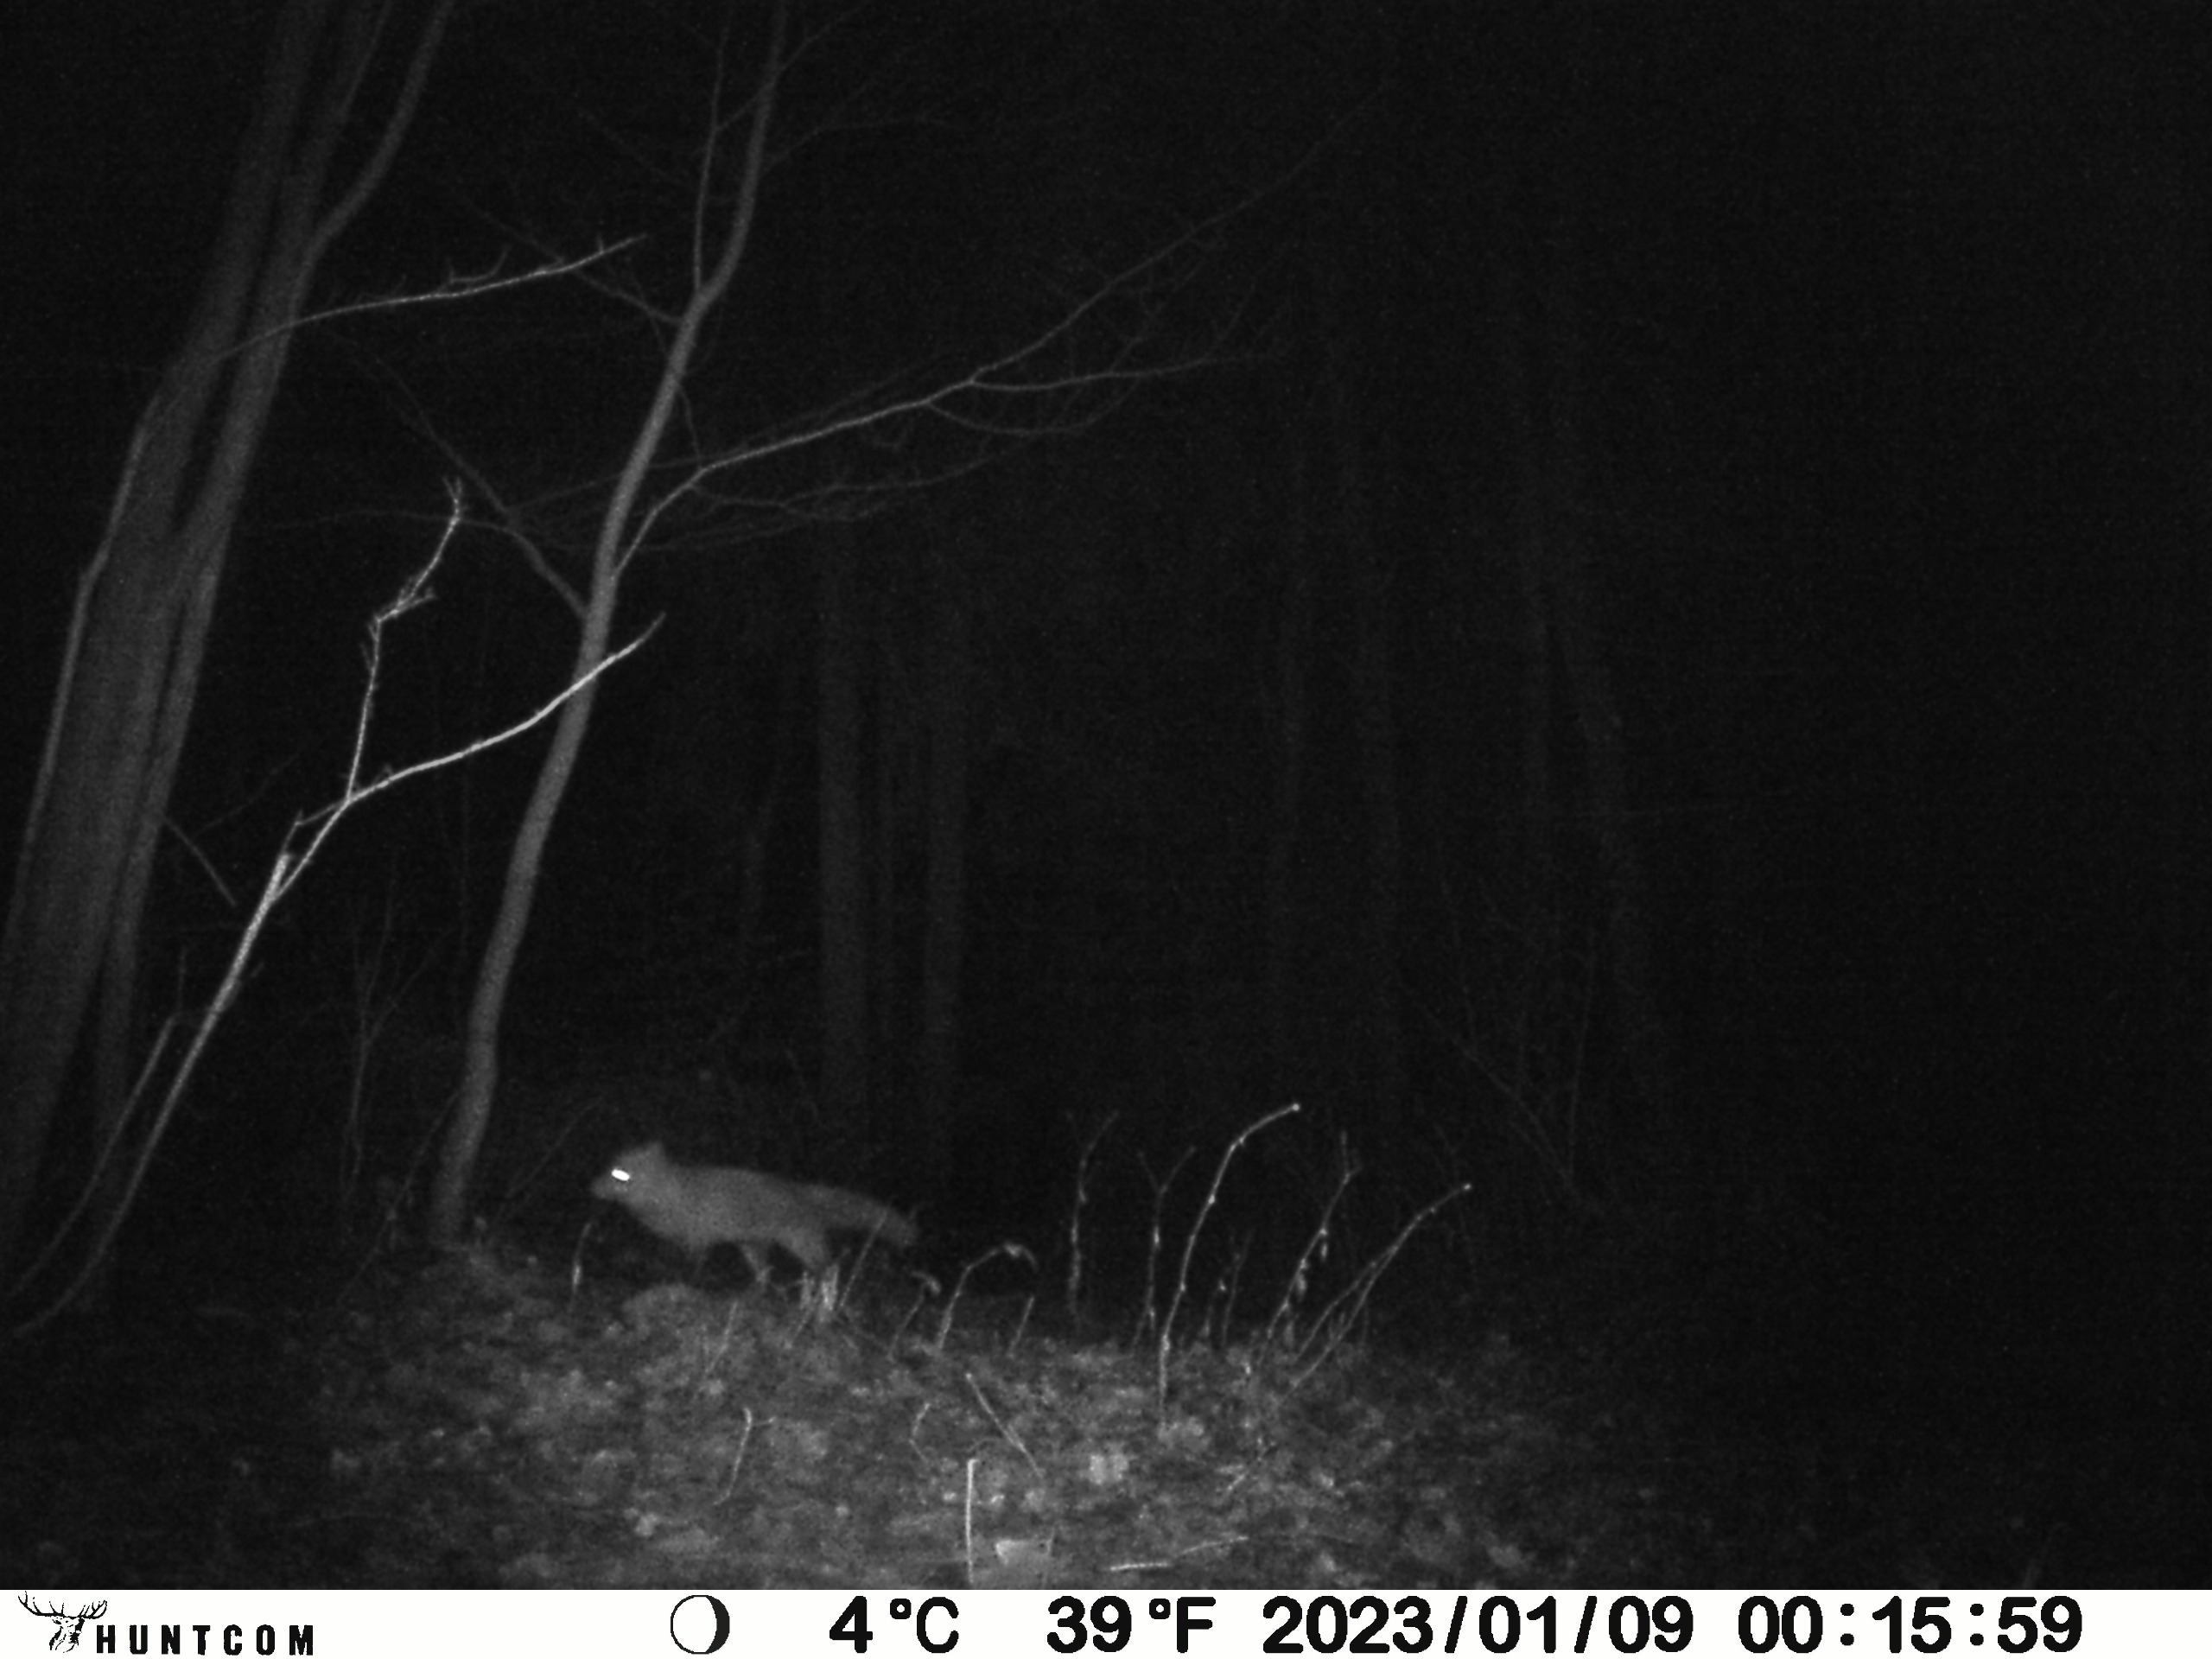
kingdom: Animalia
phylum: Chordata
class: Mammalia
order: Carnivora
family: Canidae
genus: Vulpes
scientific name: Vulpes vulpes
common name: Ræv
